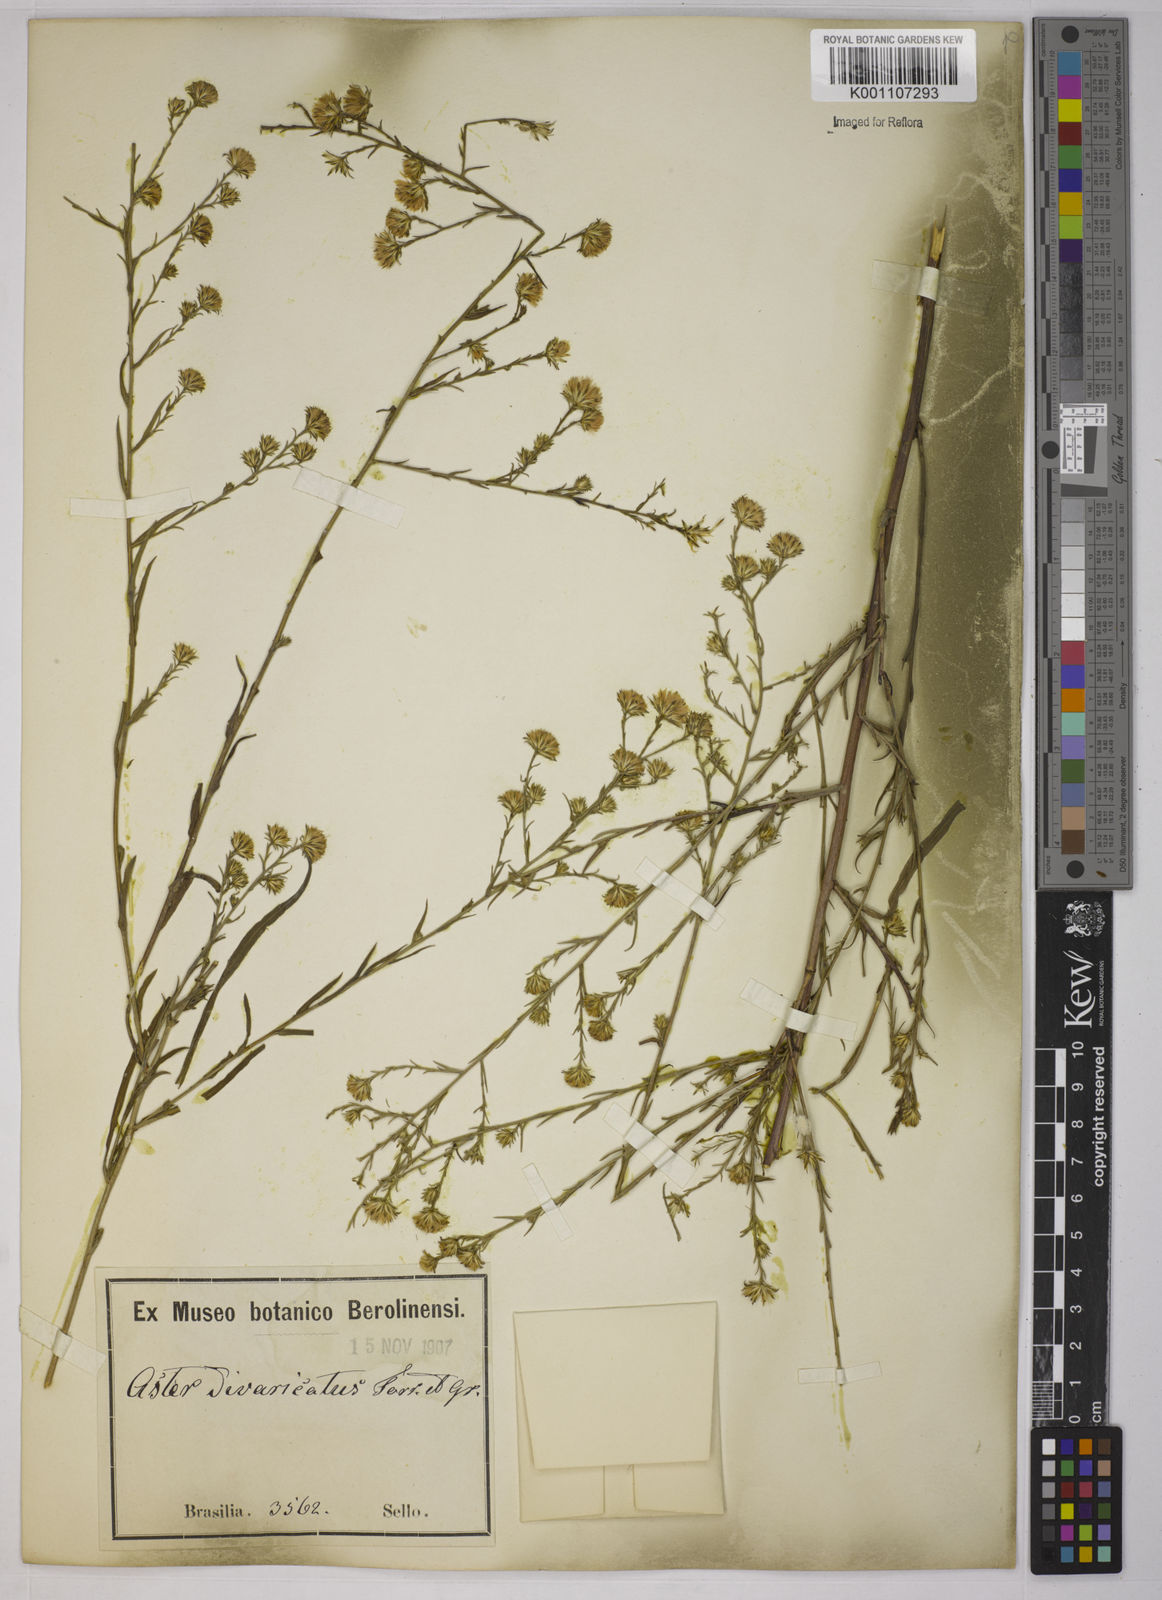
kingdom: Plantae
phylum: Tracheophyta
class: Magnoliopsida
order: Asterales
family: Asteraceae
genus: Symphyotrichum
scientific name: Symphyotrichum
